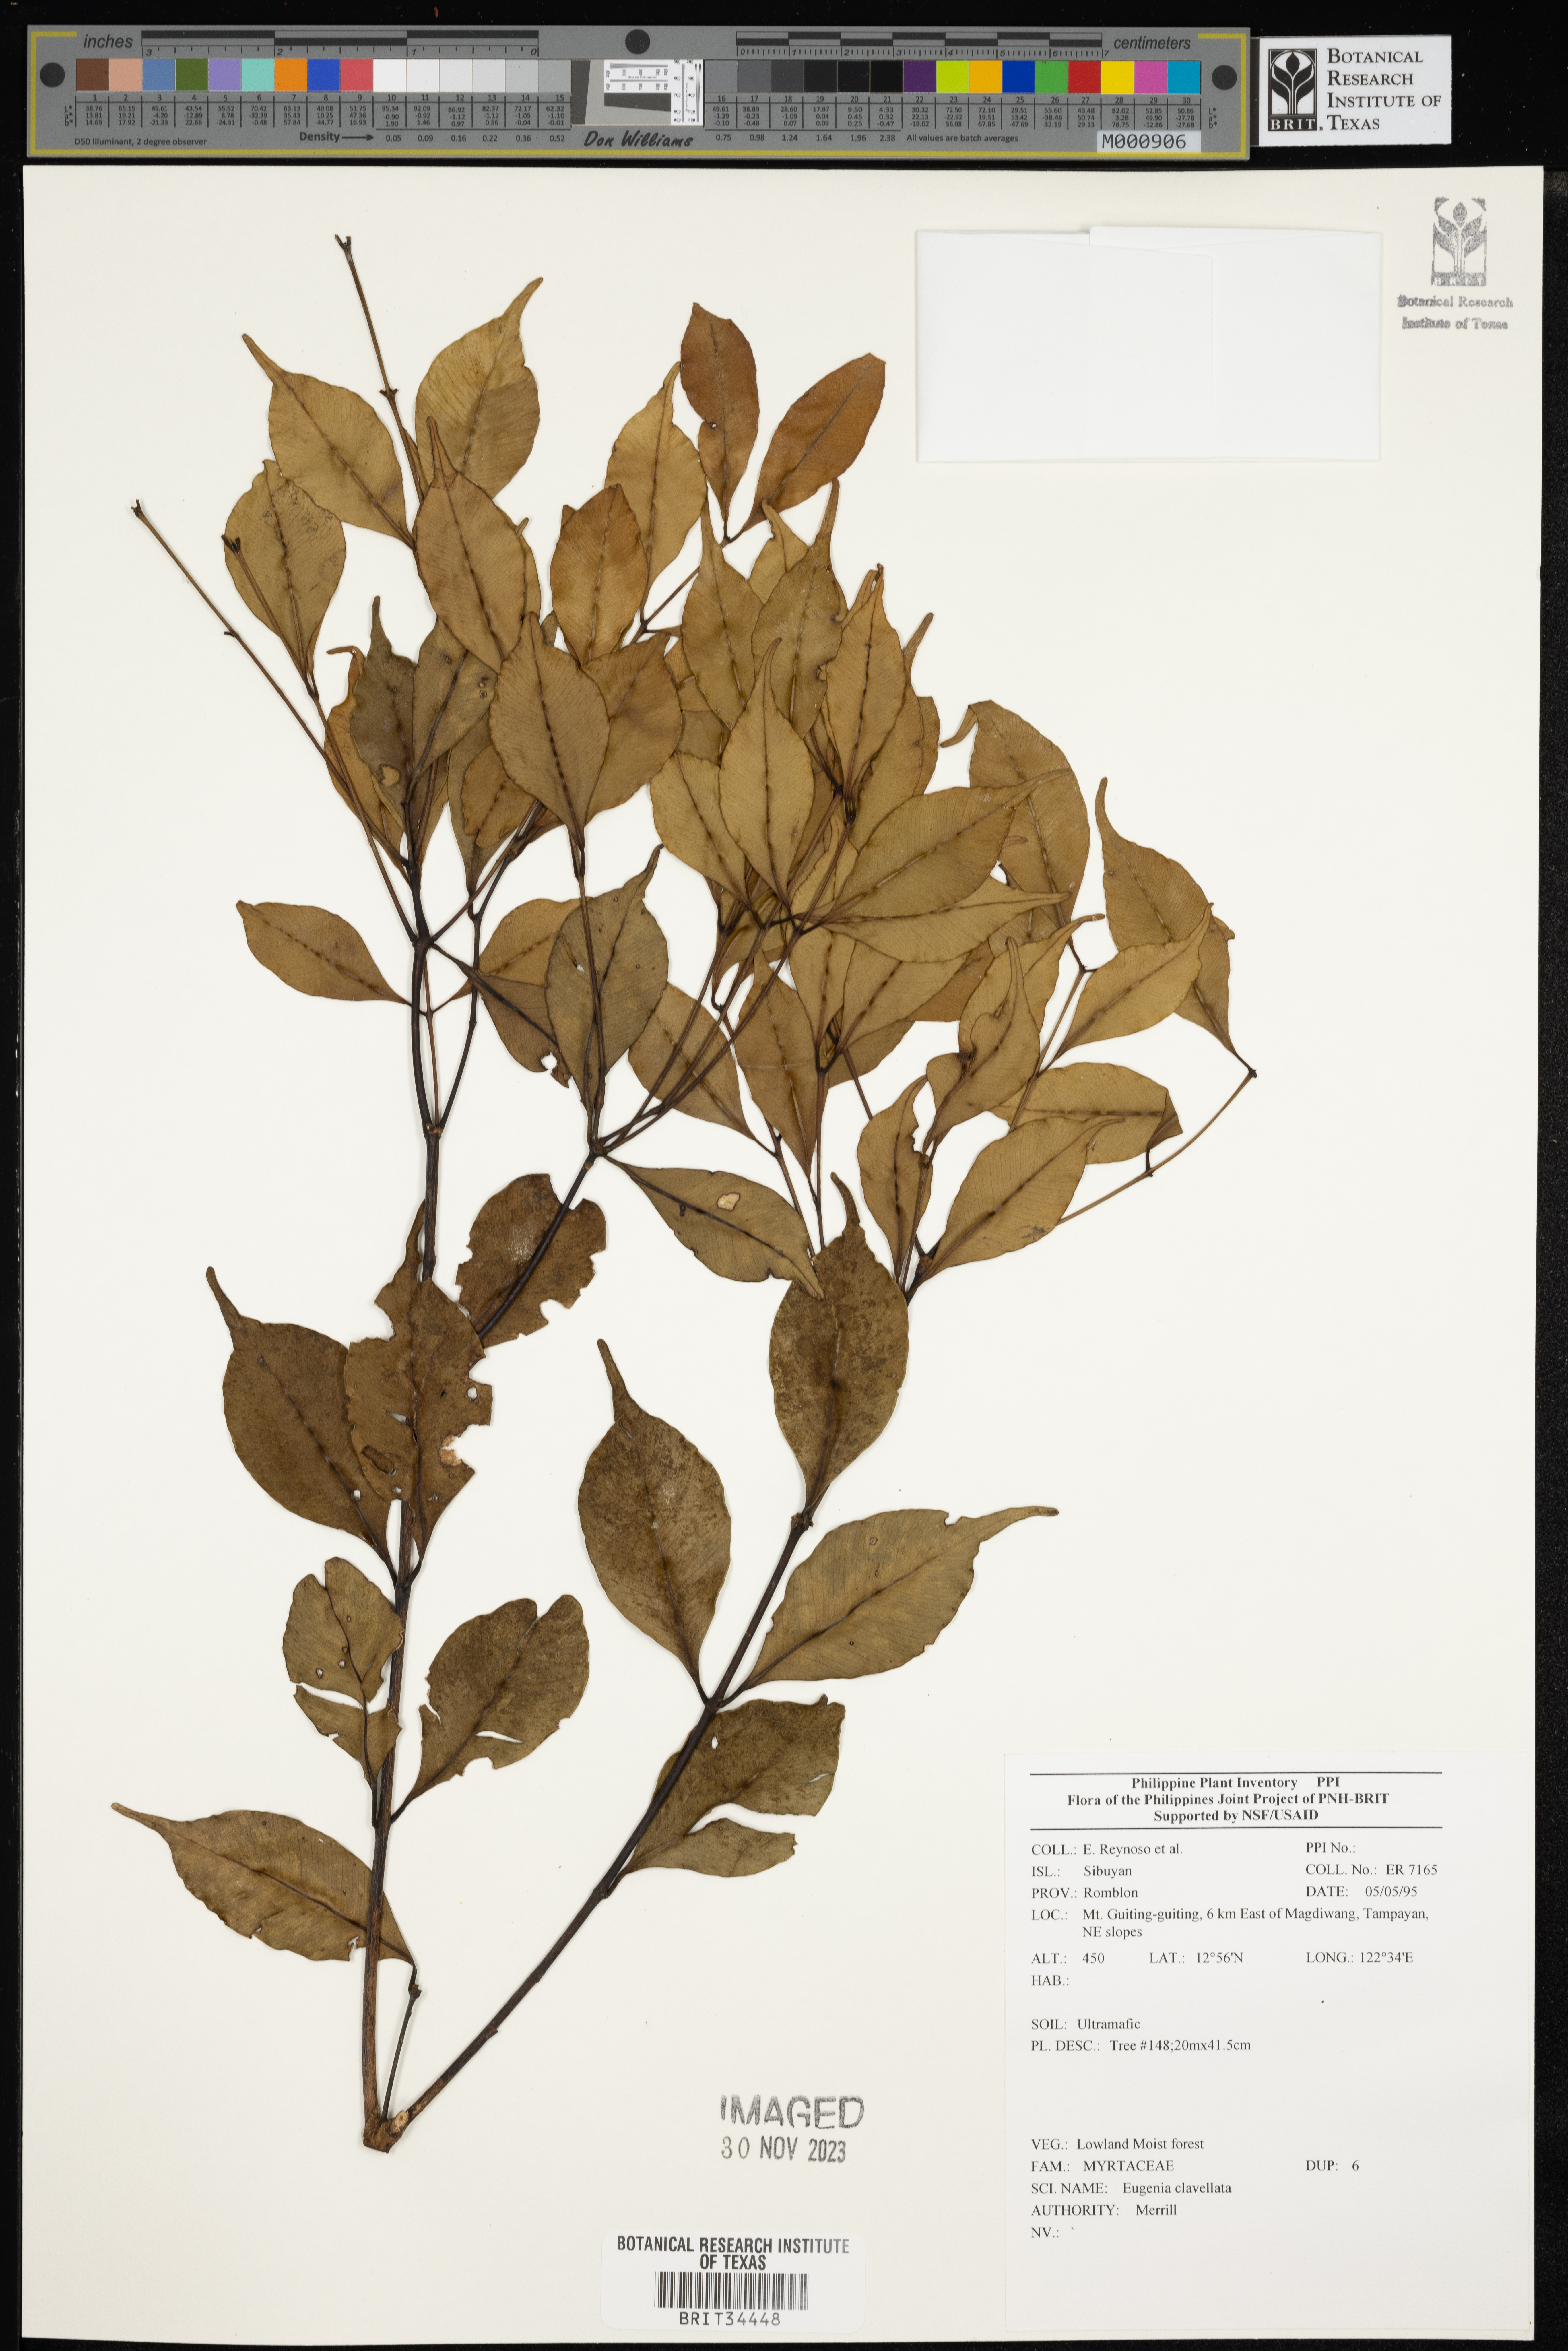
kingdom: Plantae
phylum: Tracheophyta
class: Magnoliopsida
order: Myrtales
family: Myrtaceae
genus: Eugenia
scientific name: Eugenia
